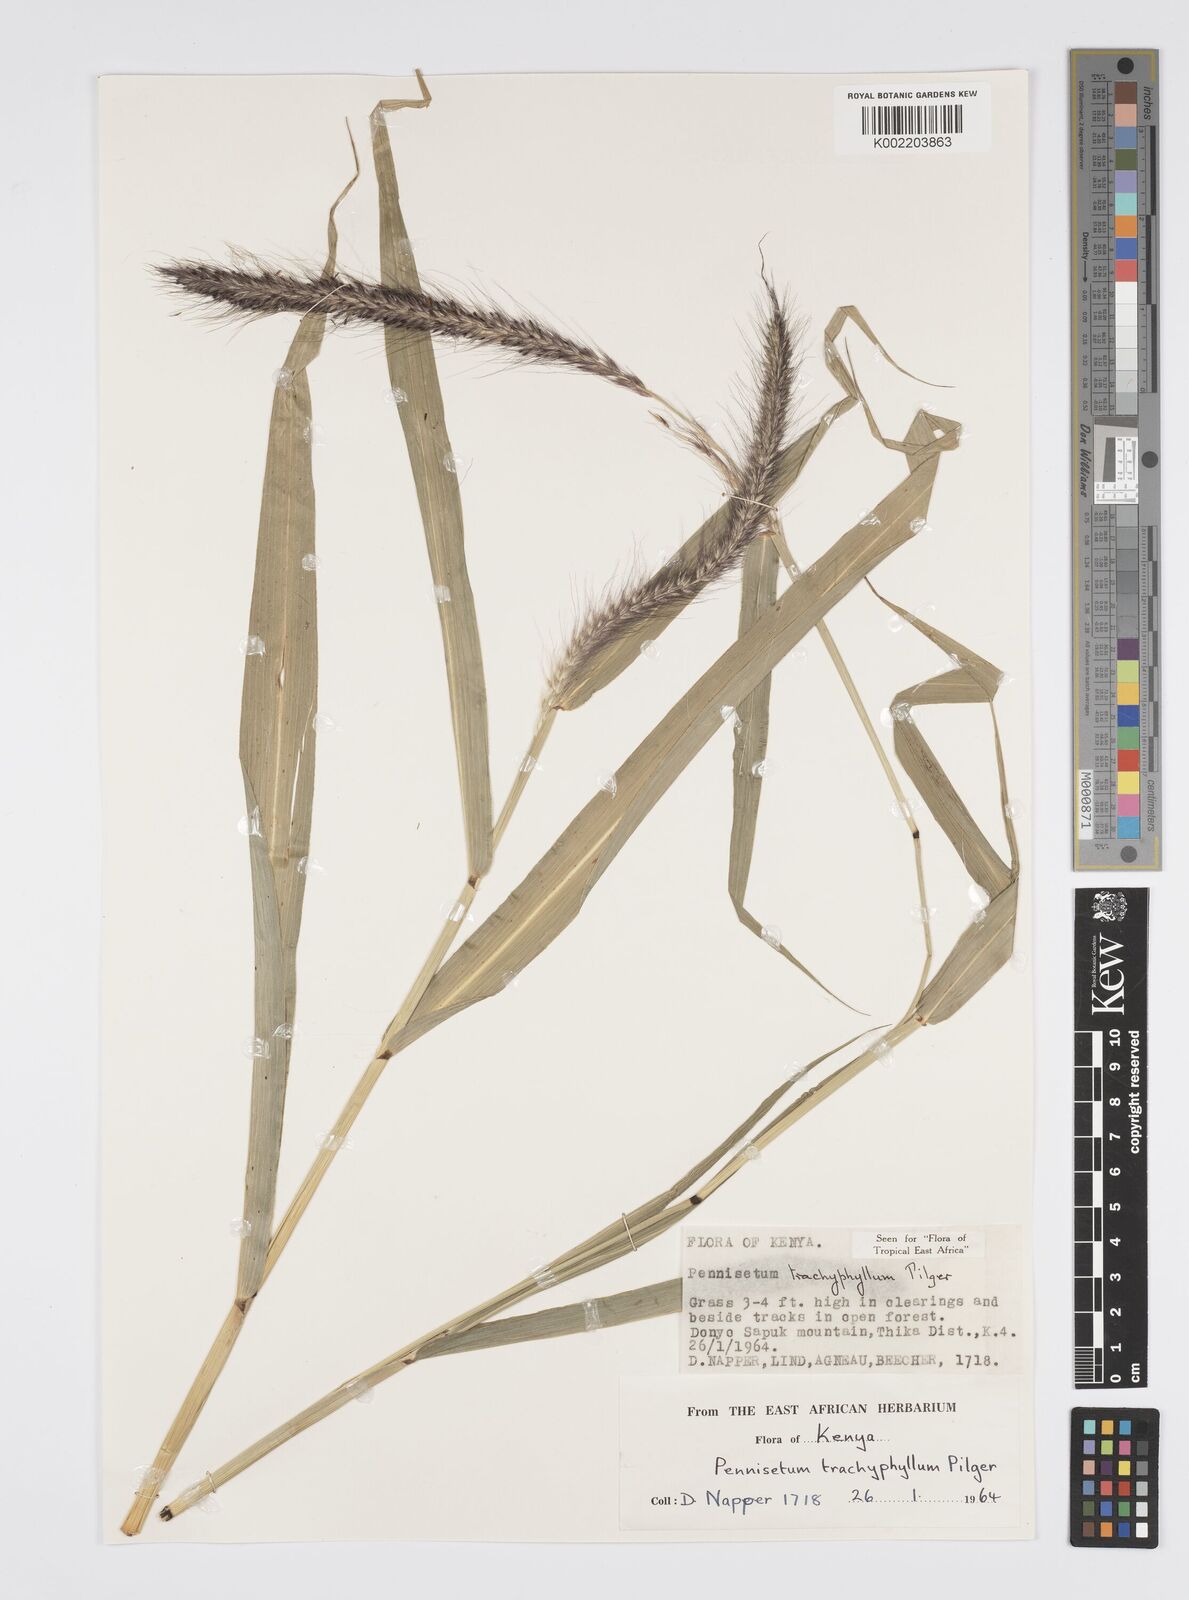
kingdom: Plantae
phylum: Tracheophyta
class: Liliopsida
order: Poales
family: Poaceae
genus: Cenchrus
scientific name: Cenchrus trachyphyllus
